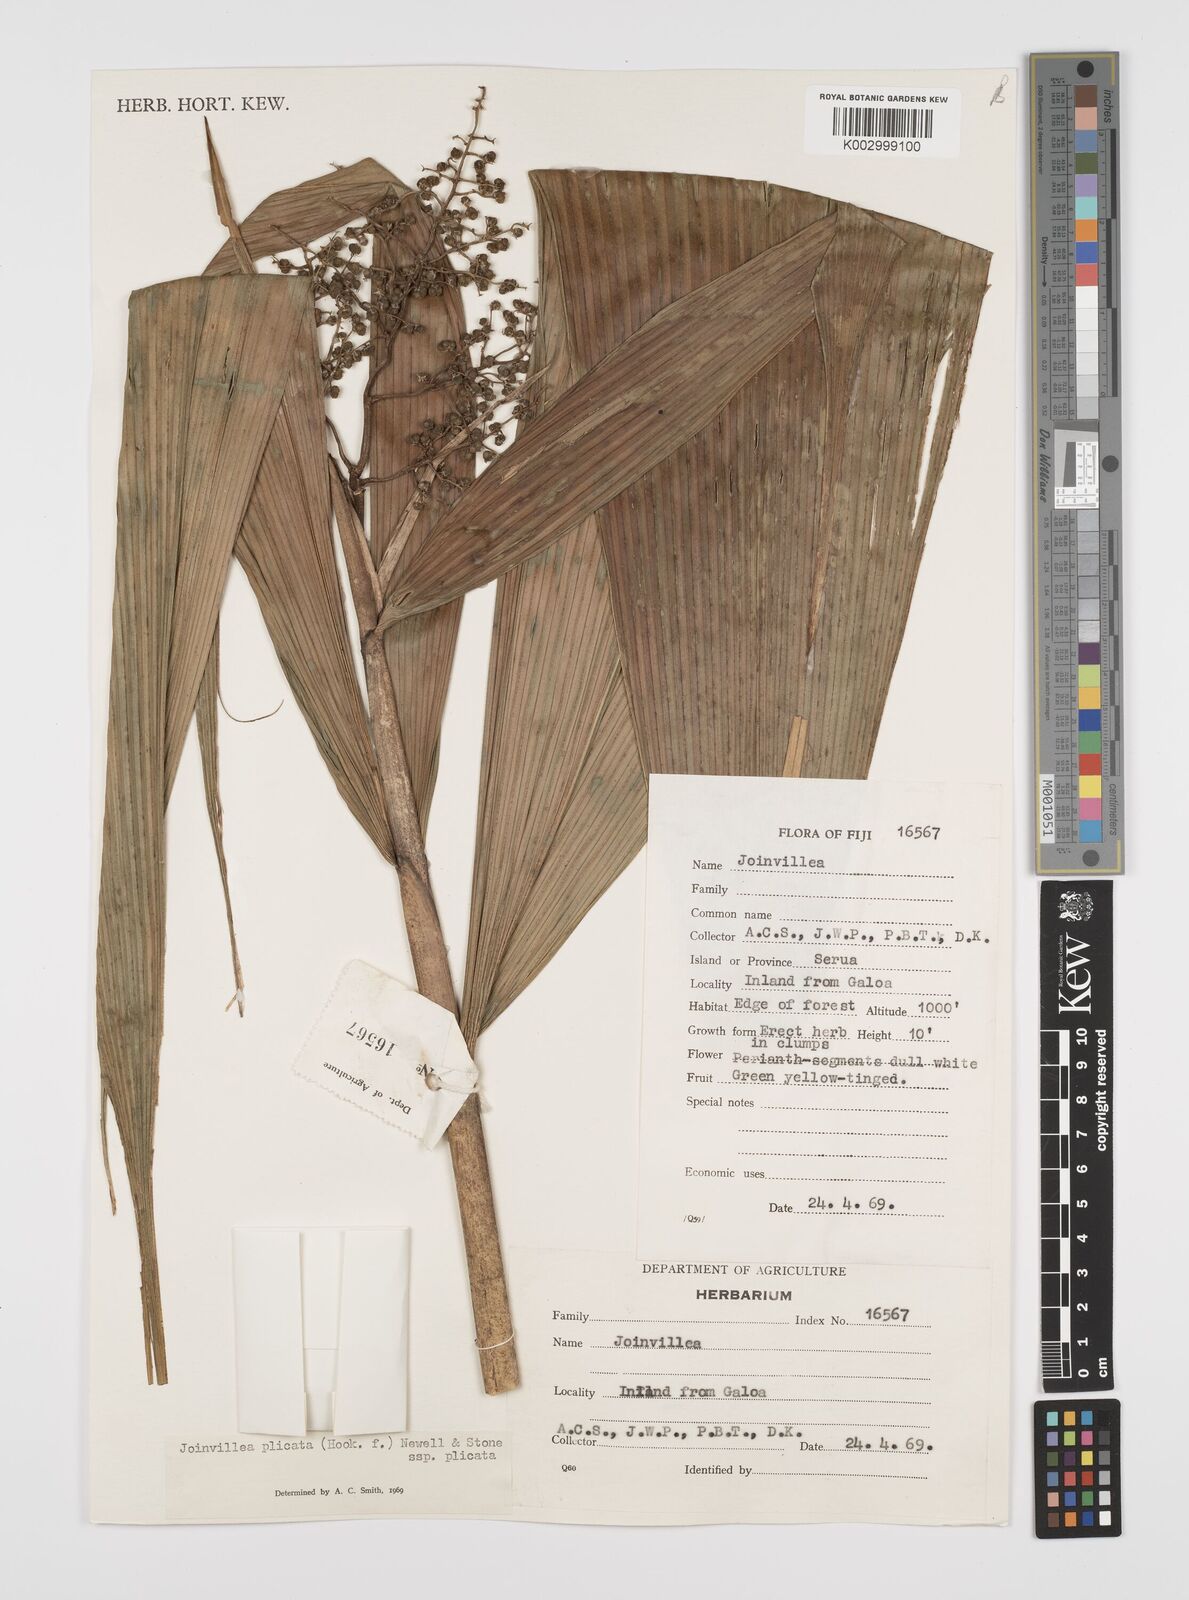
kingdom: Plantae
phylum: Tracheophyta
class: Liliopsida
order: Poales
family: Joinvilleaceae
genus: Joinvillea
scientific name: Joinvillea plicata
